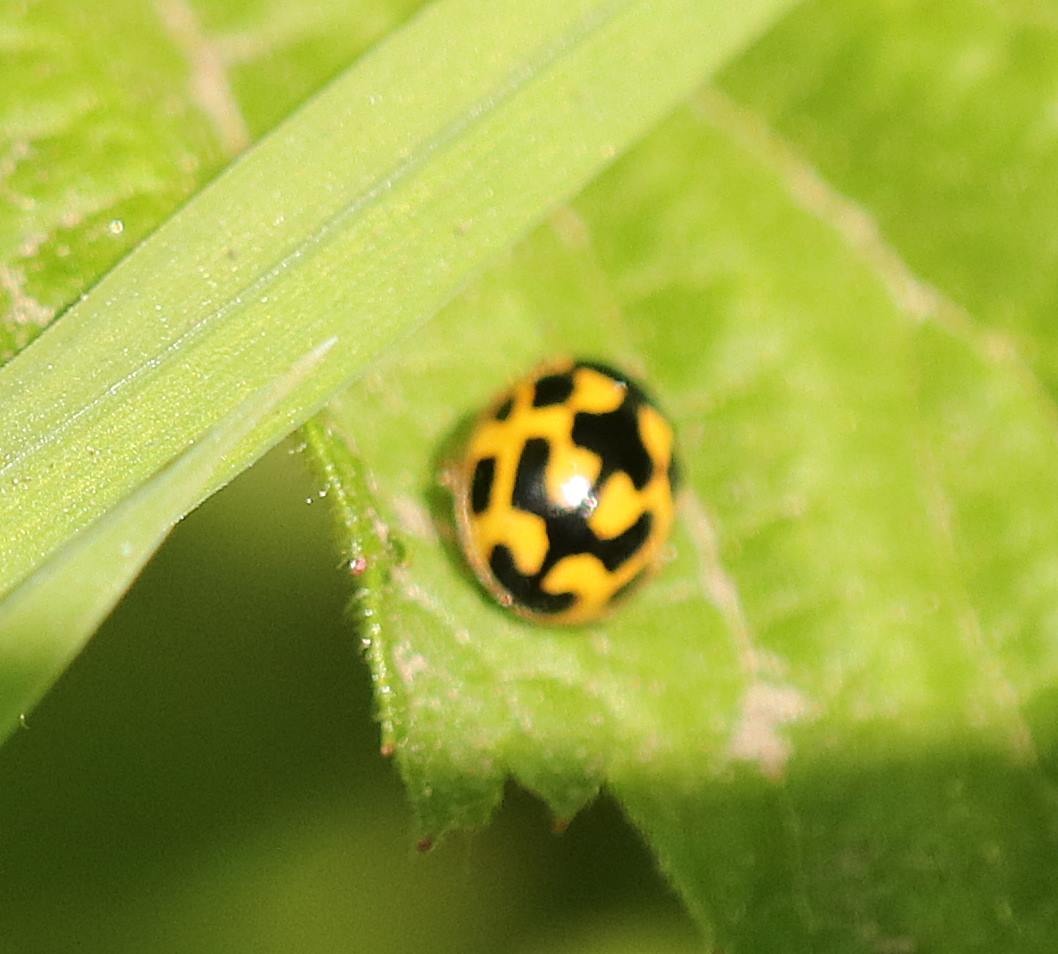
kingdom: Animalia
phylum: Arthropoda
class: Insecta
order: Coleoptera
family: Coccinellidae
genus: Propylaea
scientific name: Propylaea quatuordecimpunctata
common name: Skakbræt
